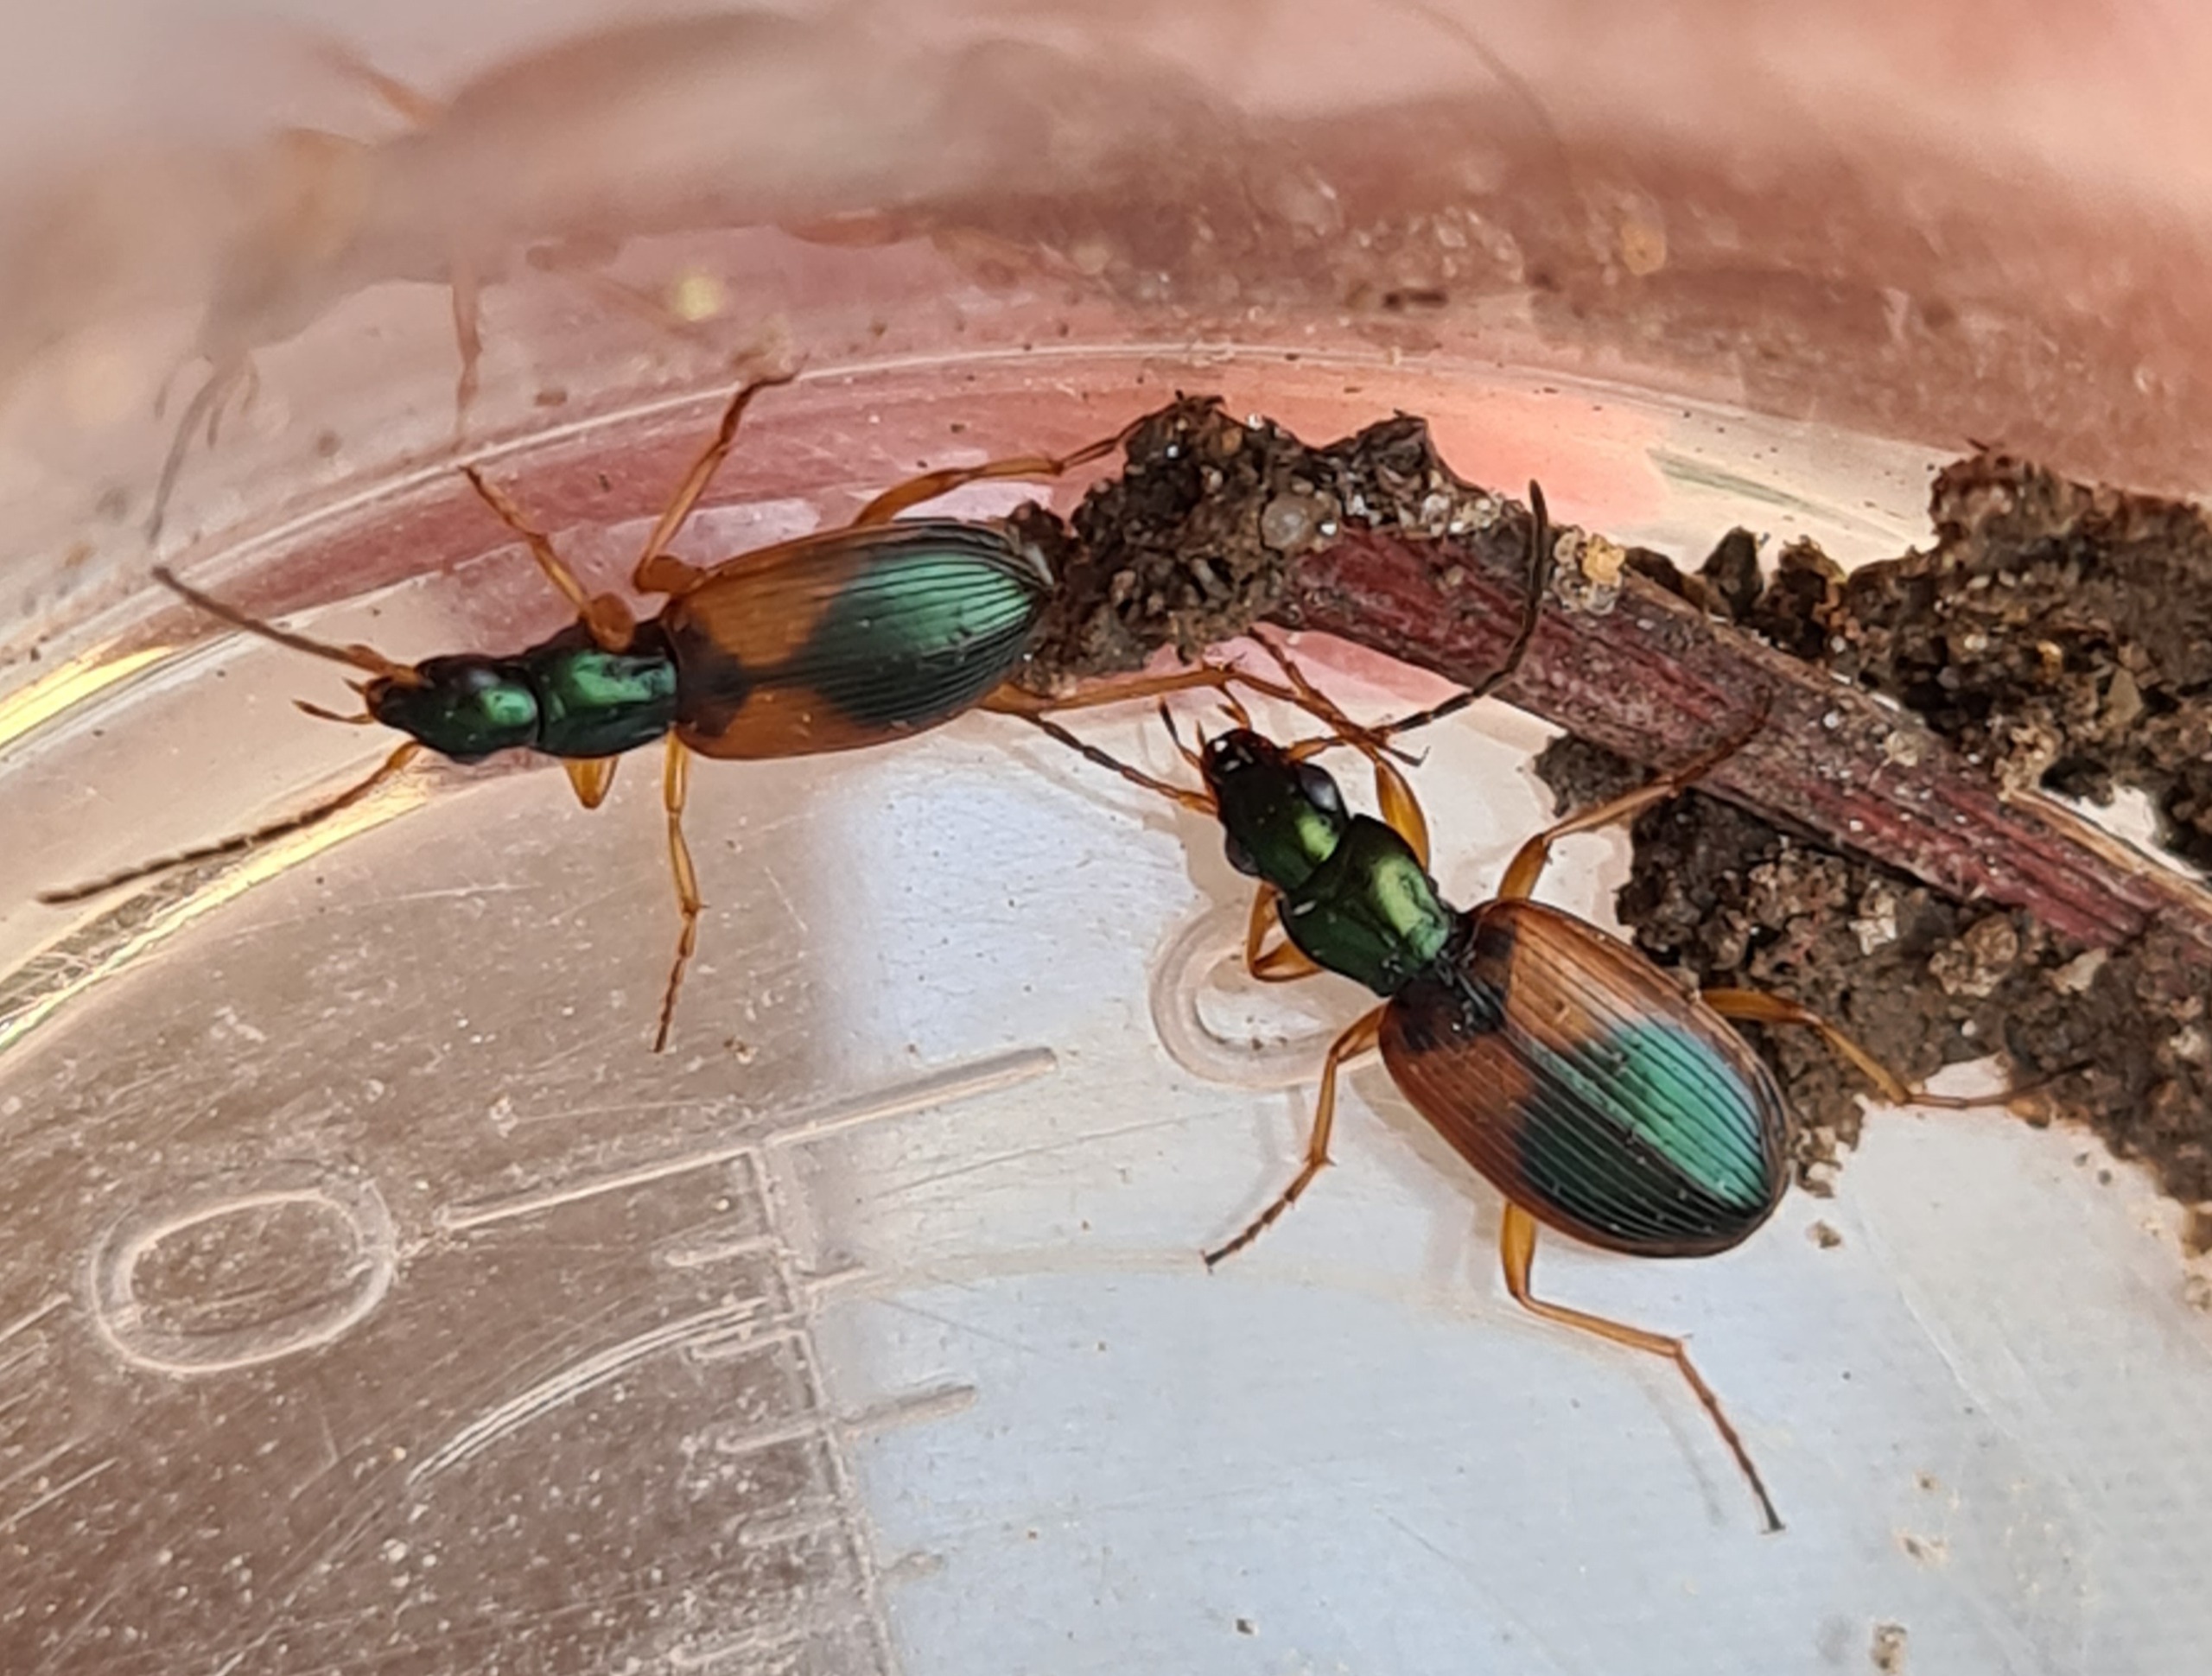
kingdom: Animalia
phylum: Arthropoda
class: Insecta
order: Coleoptera
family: Carabidae
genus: Anchomenus
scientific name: Anchomenus dorsalis
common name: Spraglet kvikløber
